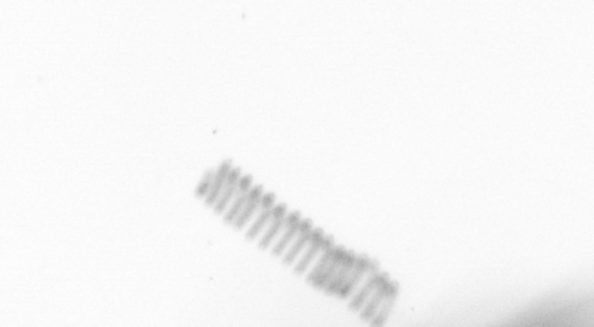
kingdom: Chromista
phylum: Ochrophyta
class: Bacillariophyceae
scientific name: Bacillariophyceae
